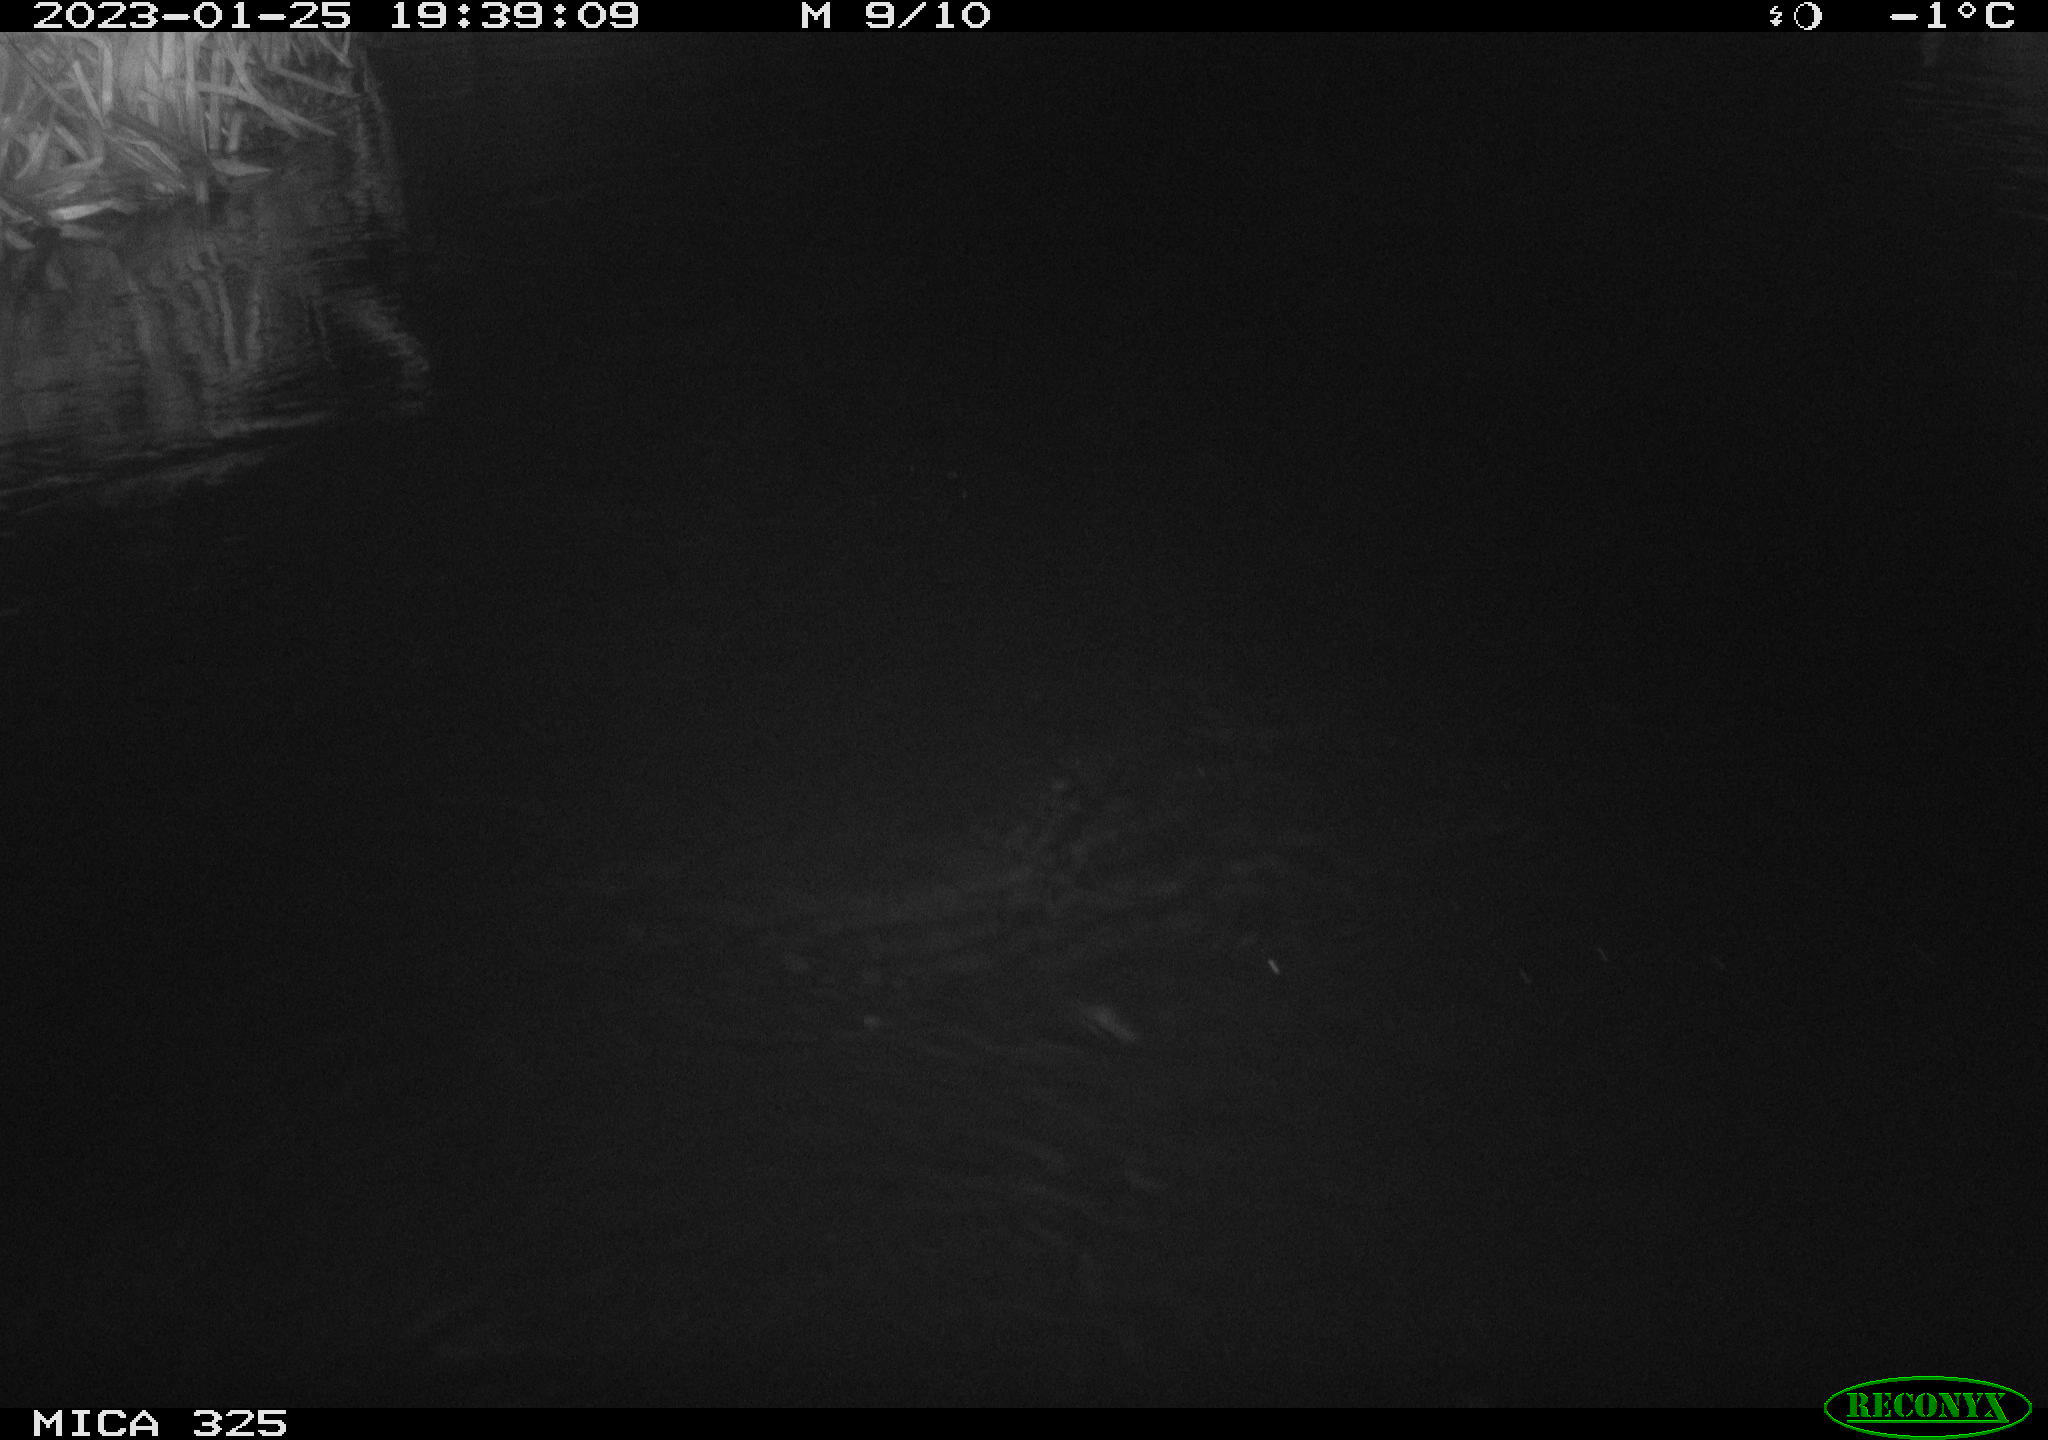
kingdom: Animalia
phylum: Chordata
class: Mammalia
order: Rodentia
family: Cricetidae
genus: Ondatra
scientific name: Ondatra zibethicus
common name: Muskrat
